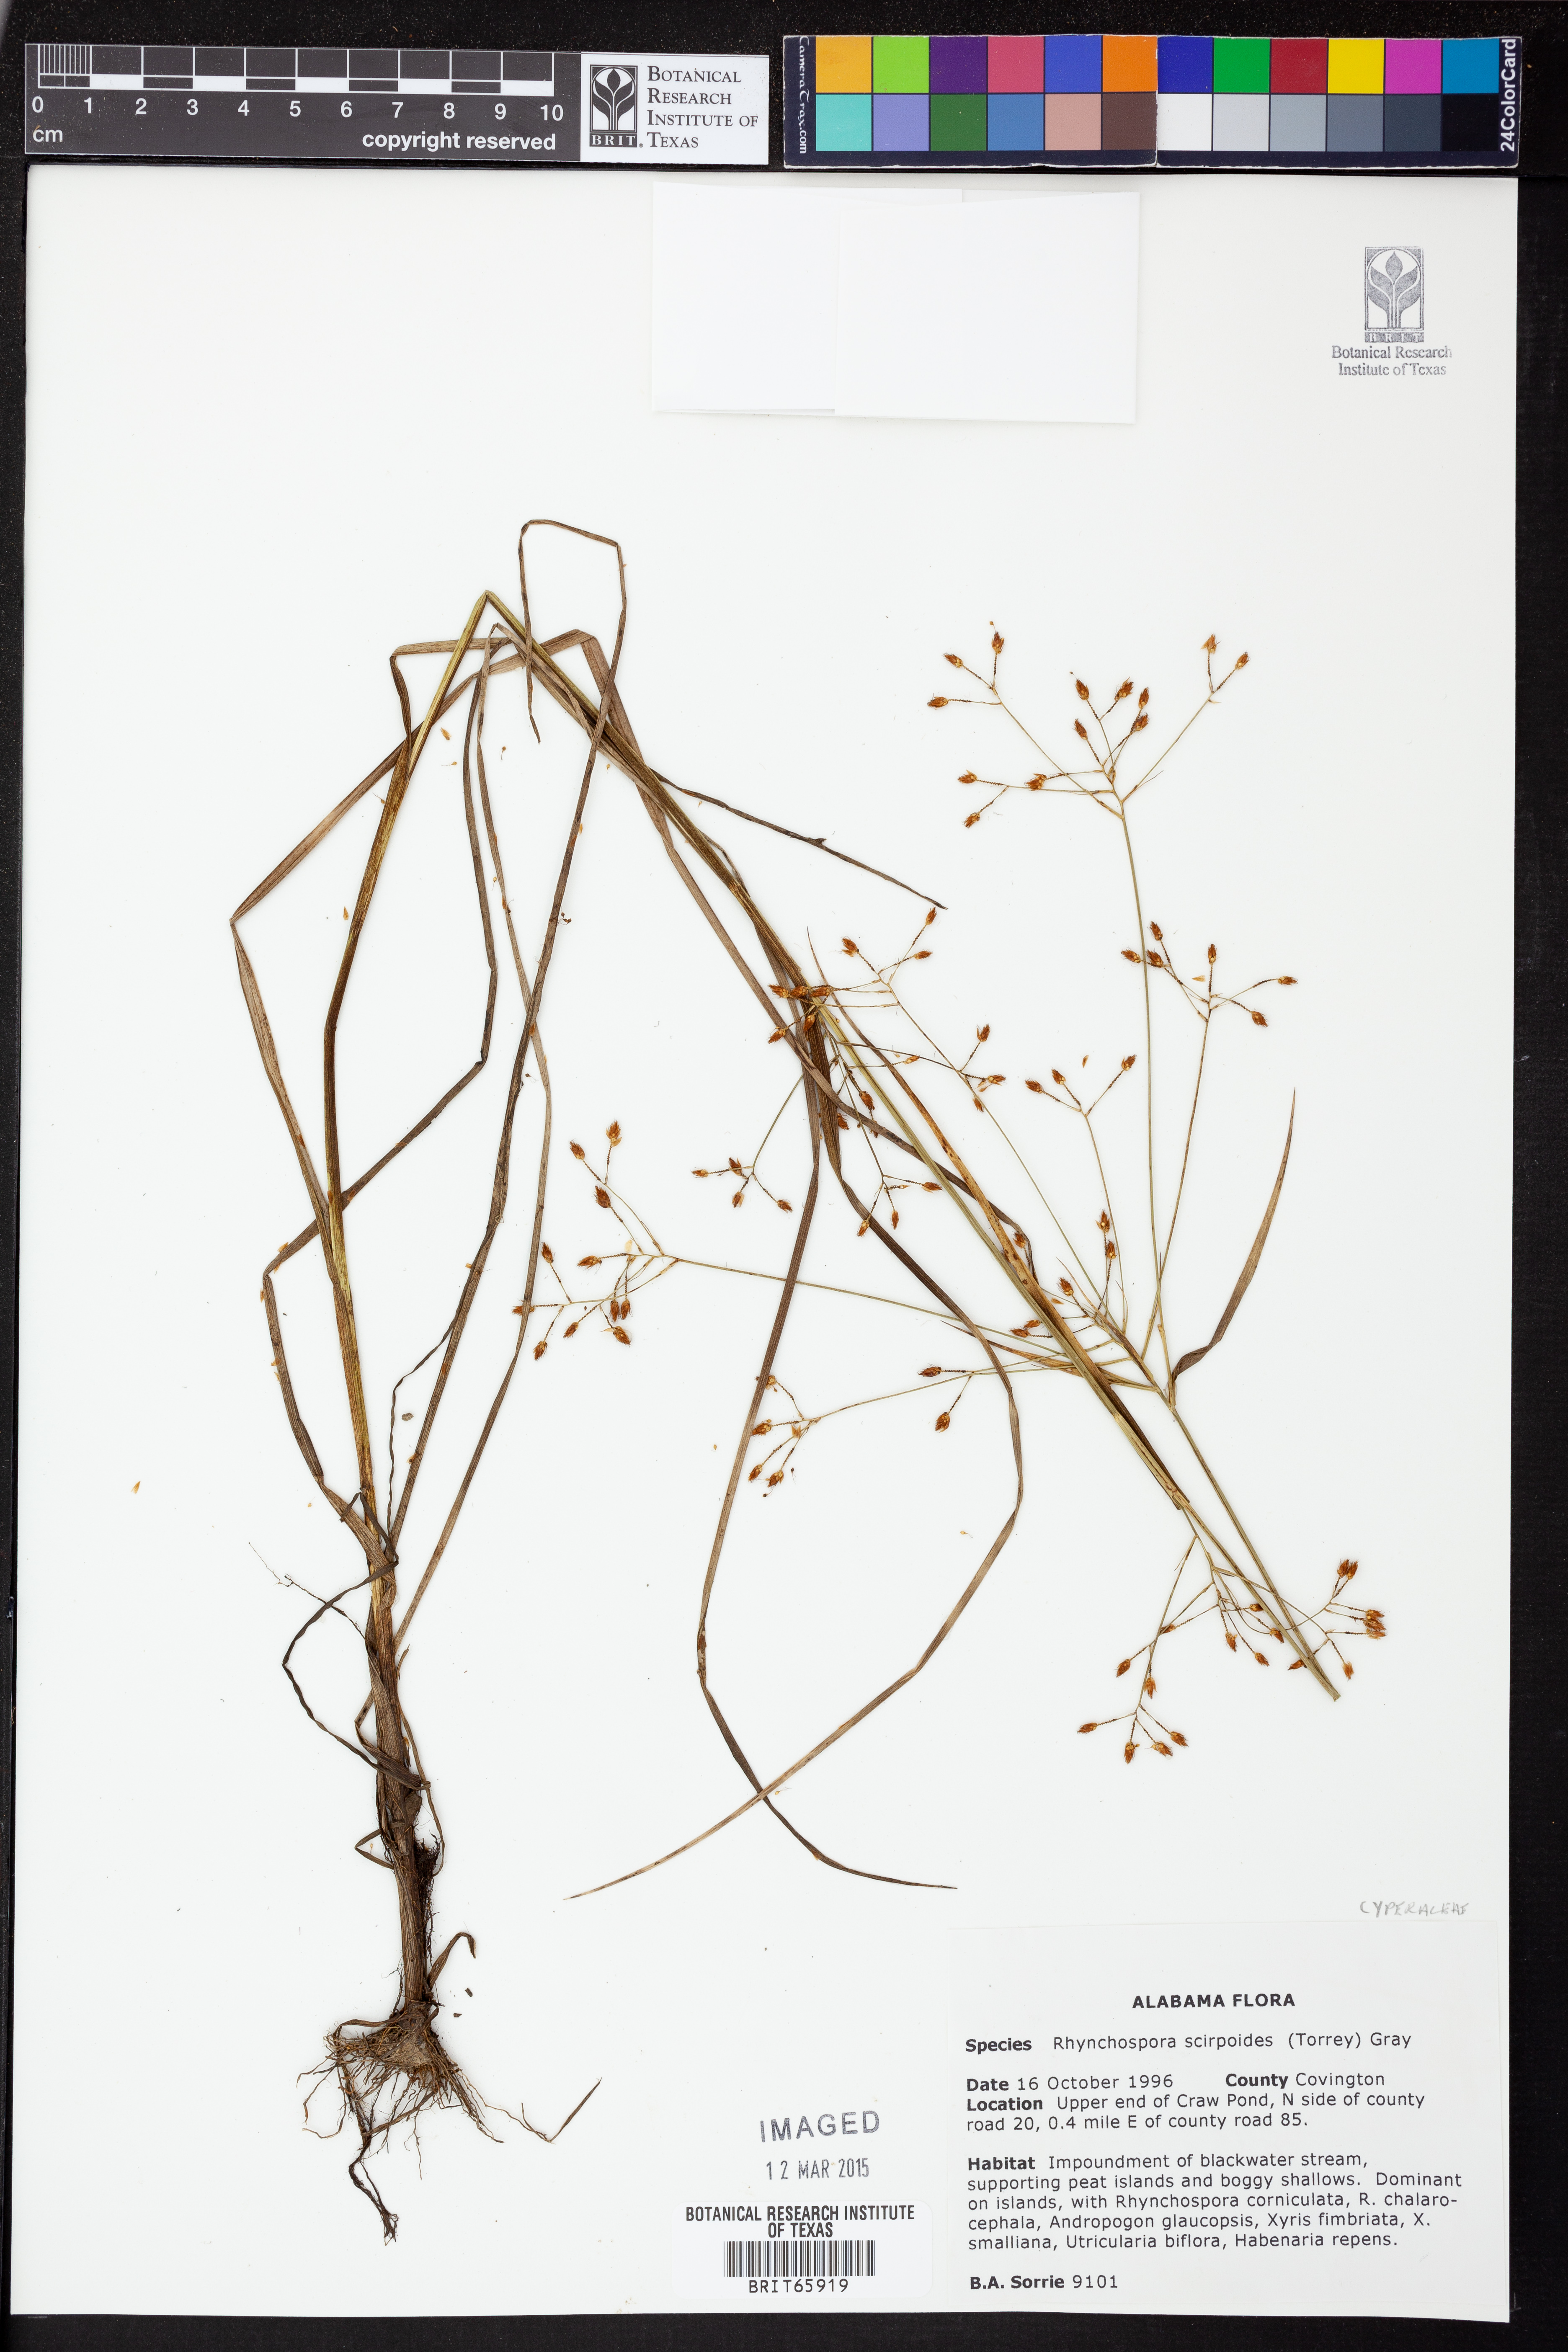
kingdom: Plantae
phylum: Tracheophyta
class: Liliopsida
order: Poales
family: Cyperaceae
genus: Rhynchospora
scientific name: Rhynchospora scirpoides
